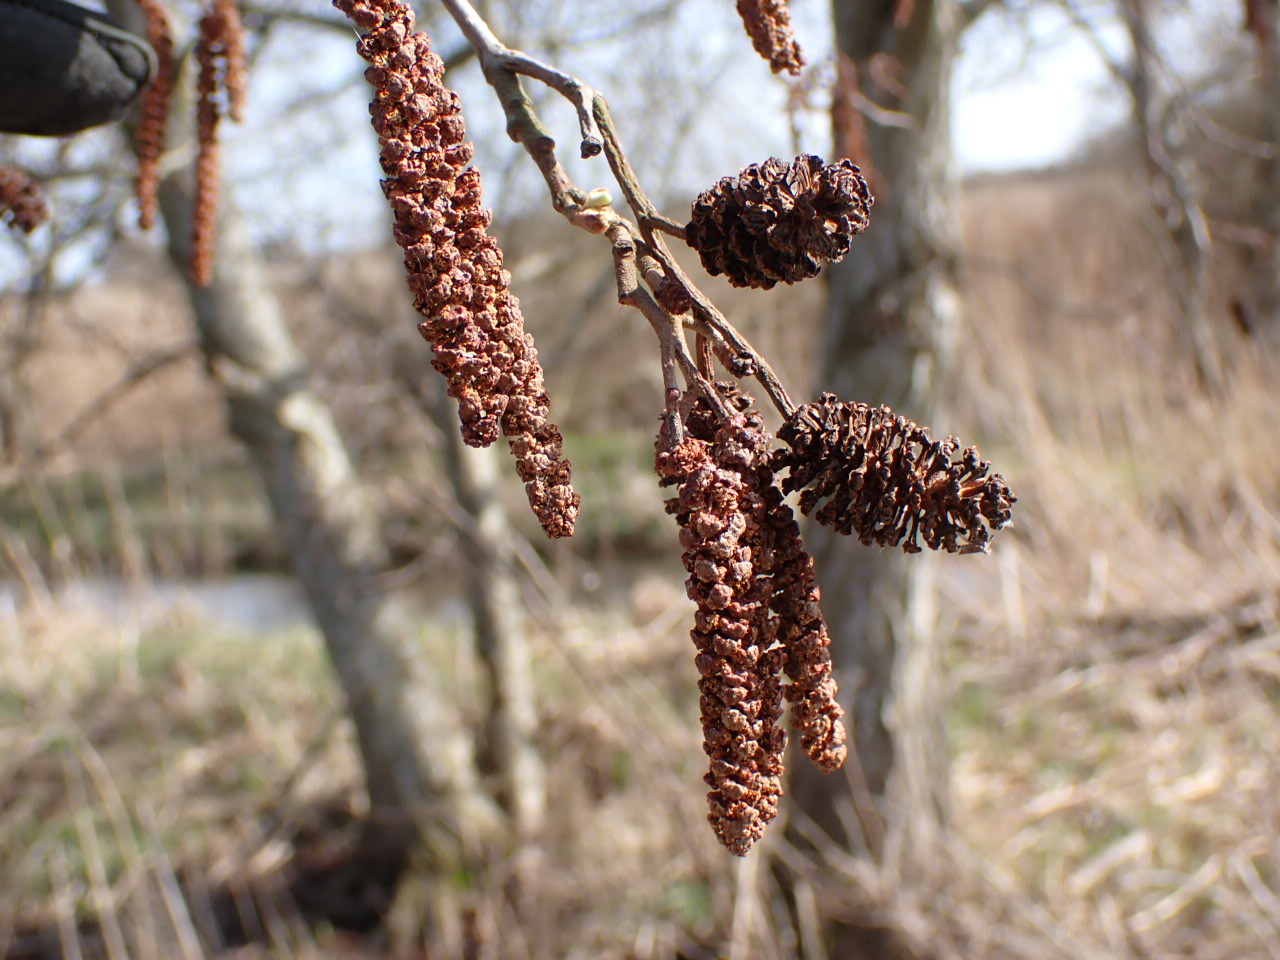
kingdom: Plantae
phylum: Tracheophyta
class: Magnoliopsida
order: Fagales
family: Betulaceae
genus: Alnus
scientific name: Alnus glutinosa
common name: Rød-el
